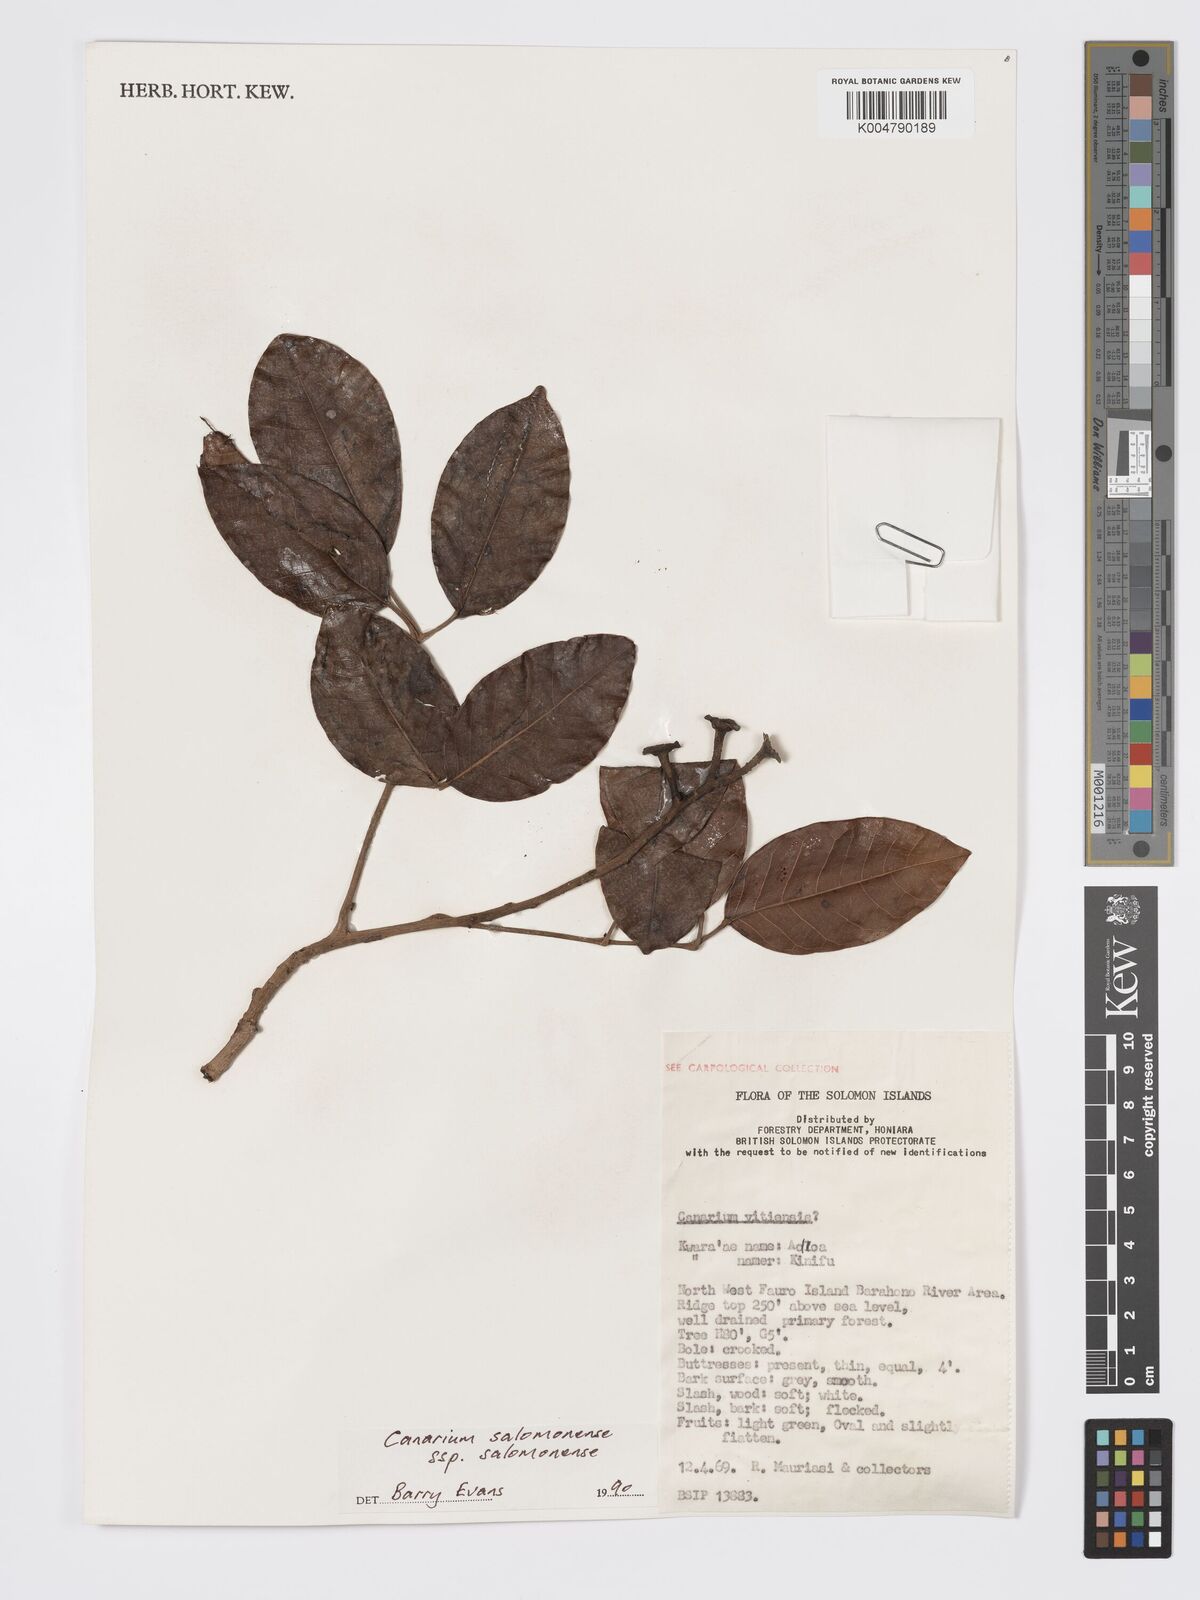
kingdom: Plantae
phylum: Tracheophyta
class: Magnoliopsida
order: Sapindales
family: Burseraceae
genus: Canarium
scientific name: Canarium salomonense
